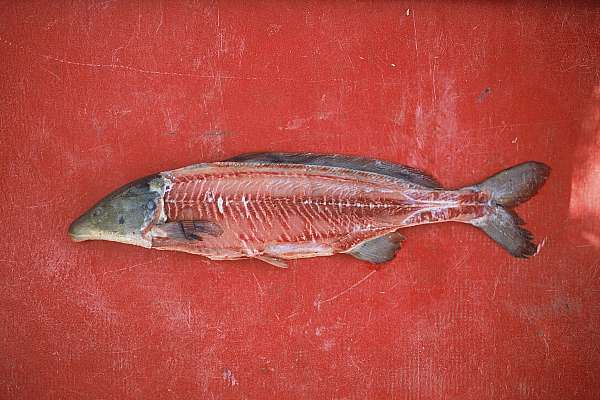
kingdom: Animalia
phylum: Chordata
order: Osteoglossiformes
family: Mormyridae
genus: Mormyrus
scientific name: Mormyrus lacerda
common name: Western bottlenose
